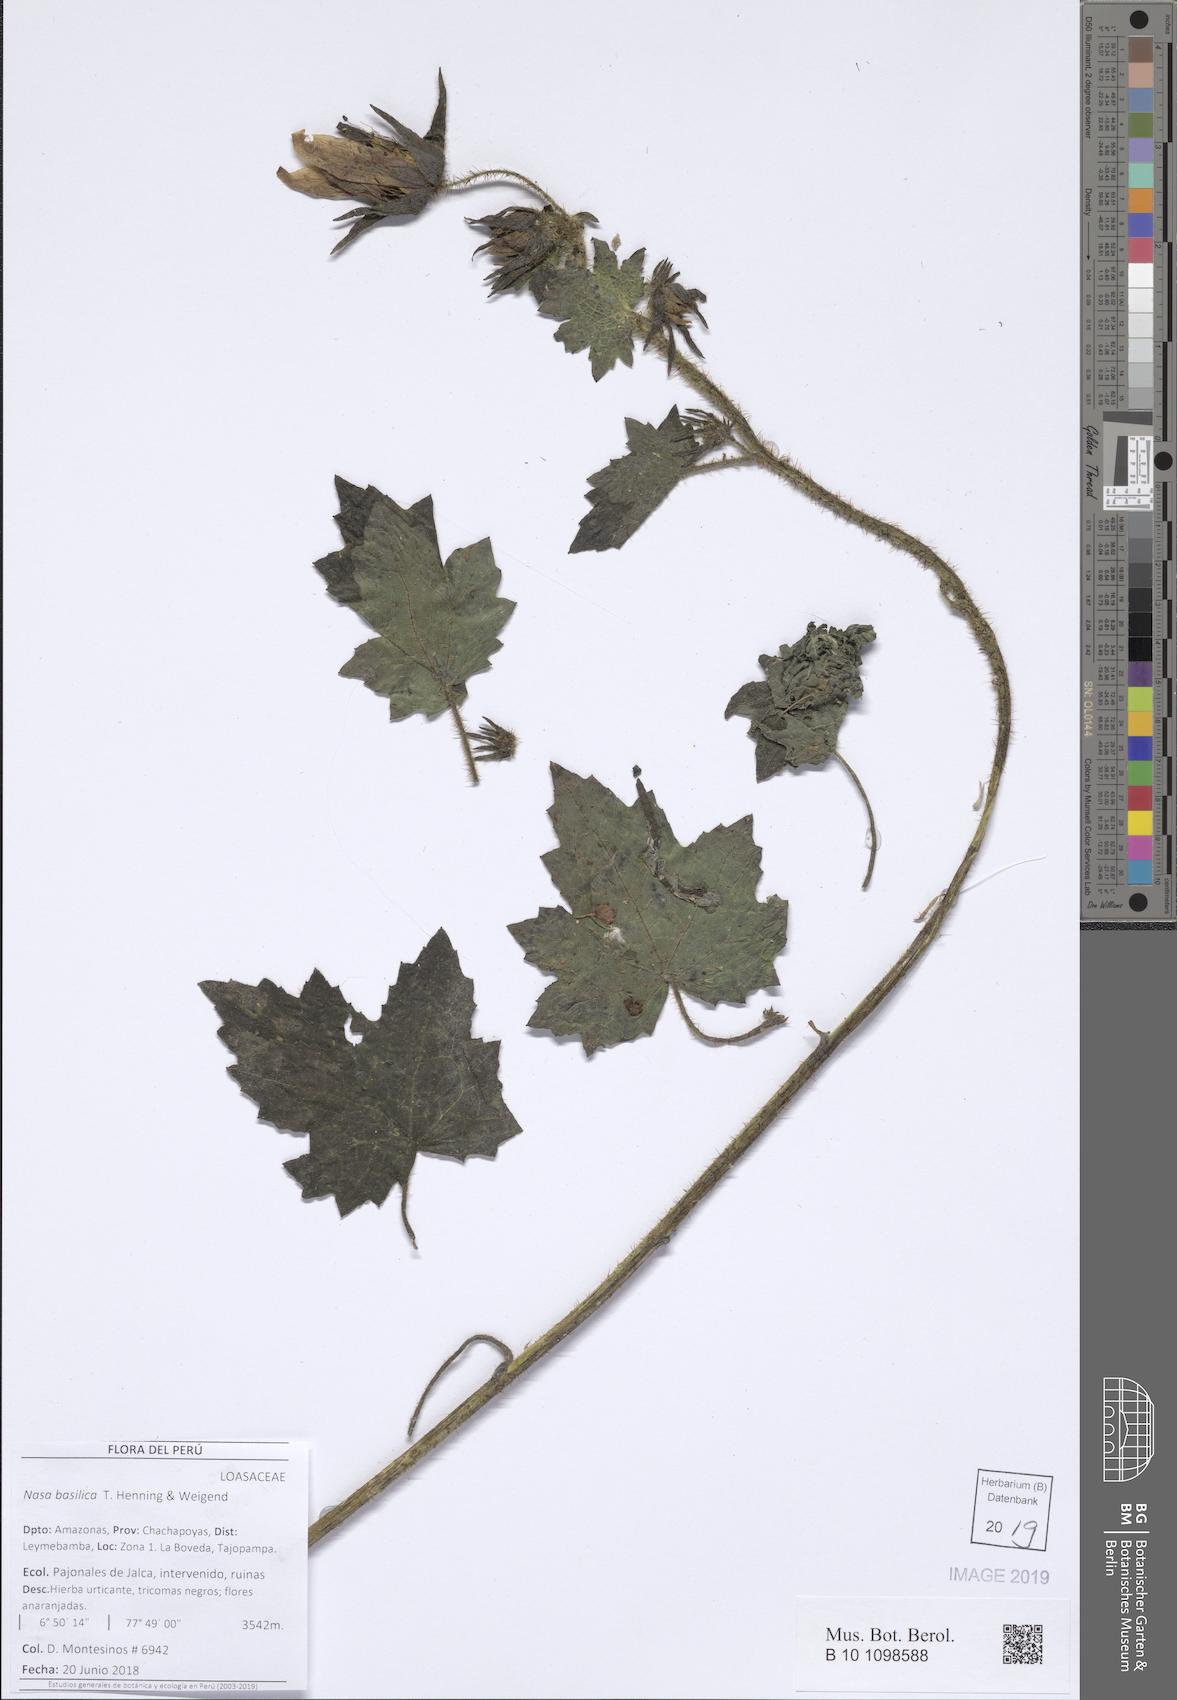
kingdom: Plantae
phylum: Tracheophyta
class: Magnoliopsida
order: Cornales
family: Loasaceae
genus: Nasa
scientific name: Nasa basilica
